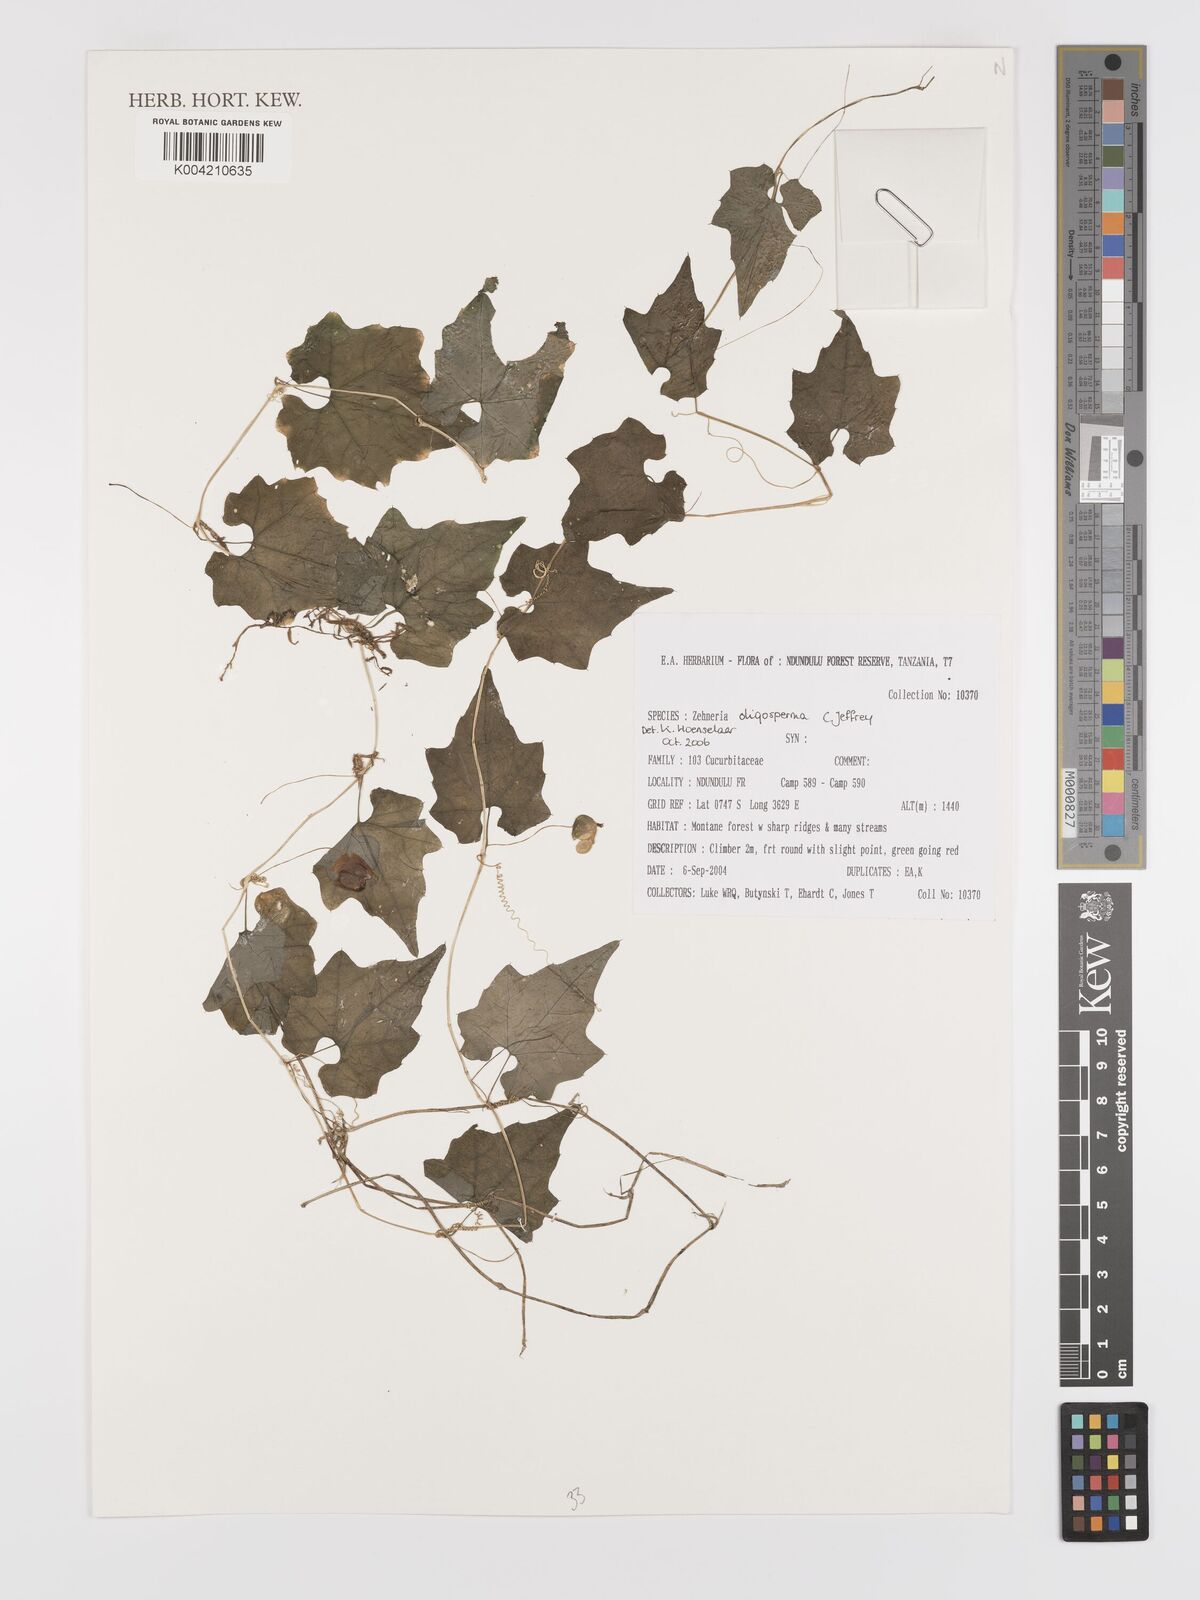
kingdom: Plantae
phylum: Tracheophyta
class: Magnoliopsida
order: Cucurbitales
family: Cucurbitaceae
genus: Zehneria
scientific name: Zehneria oligosperma
